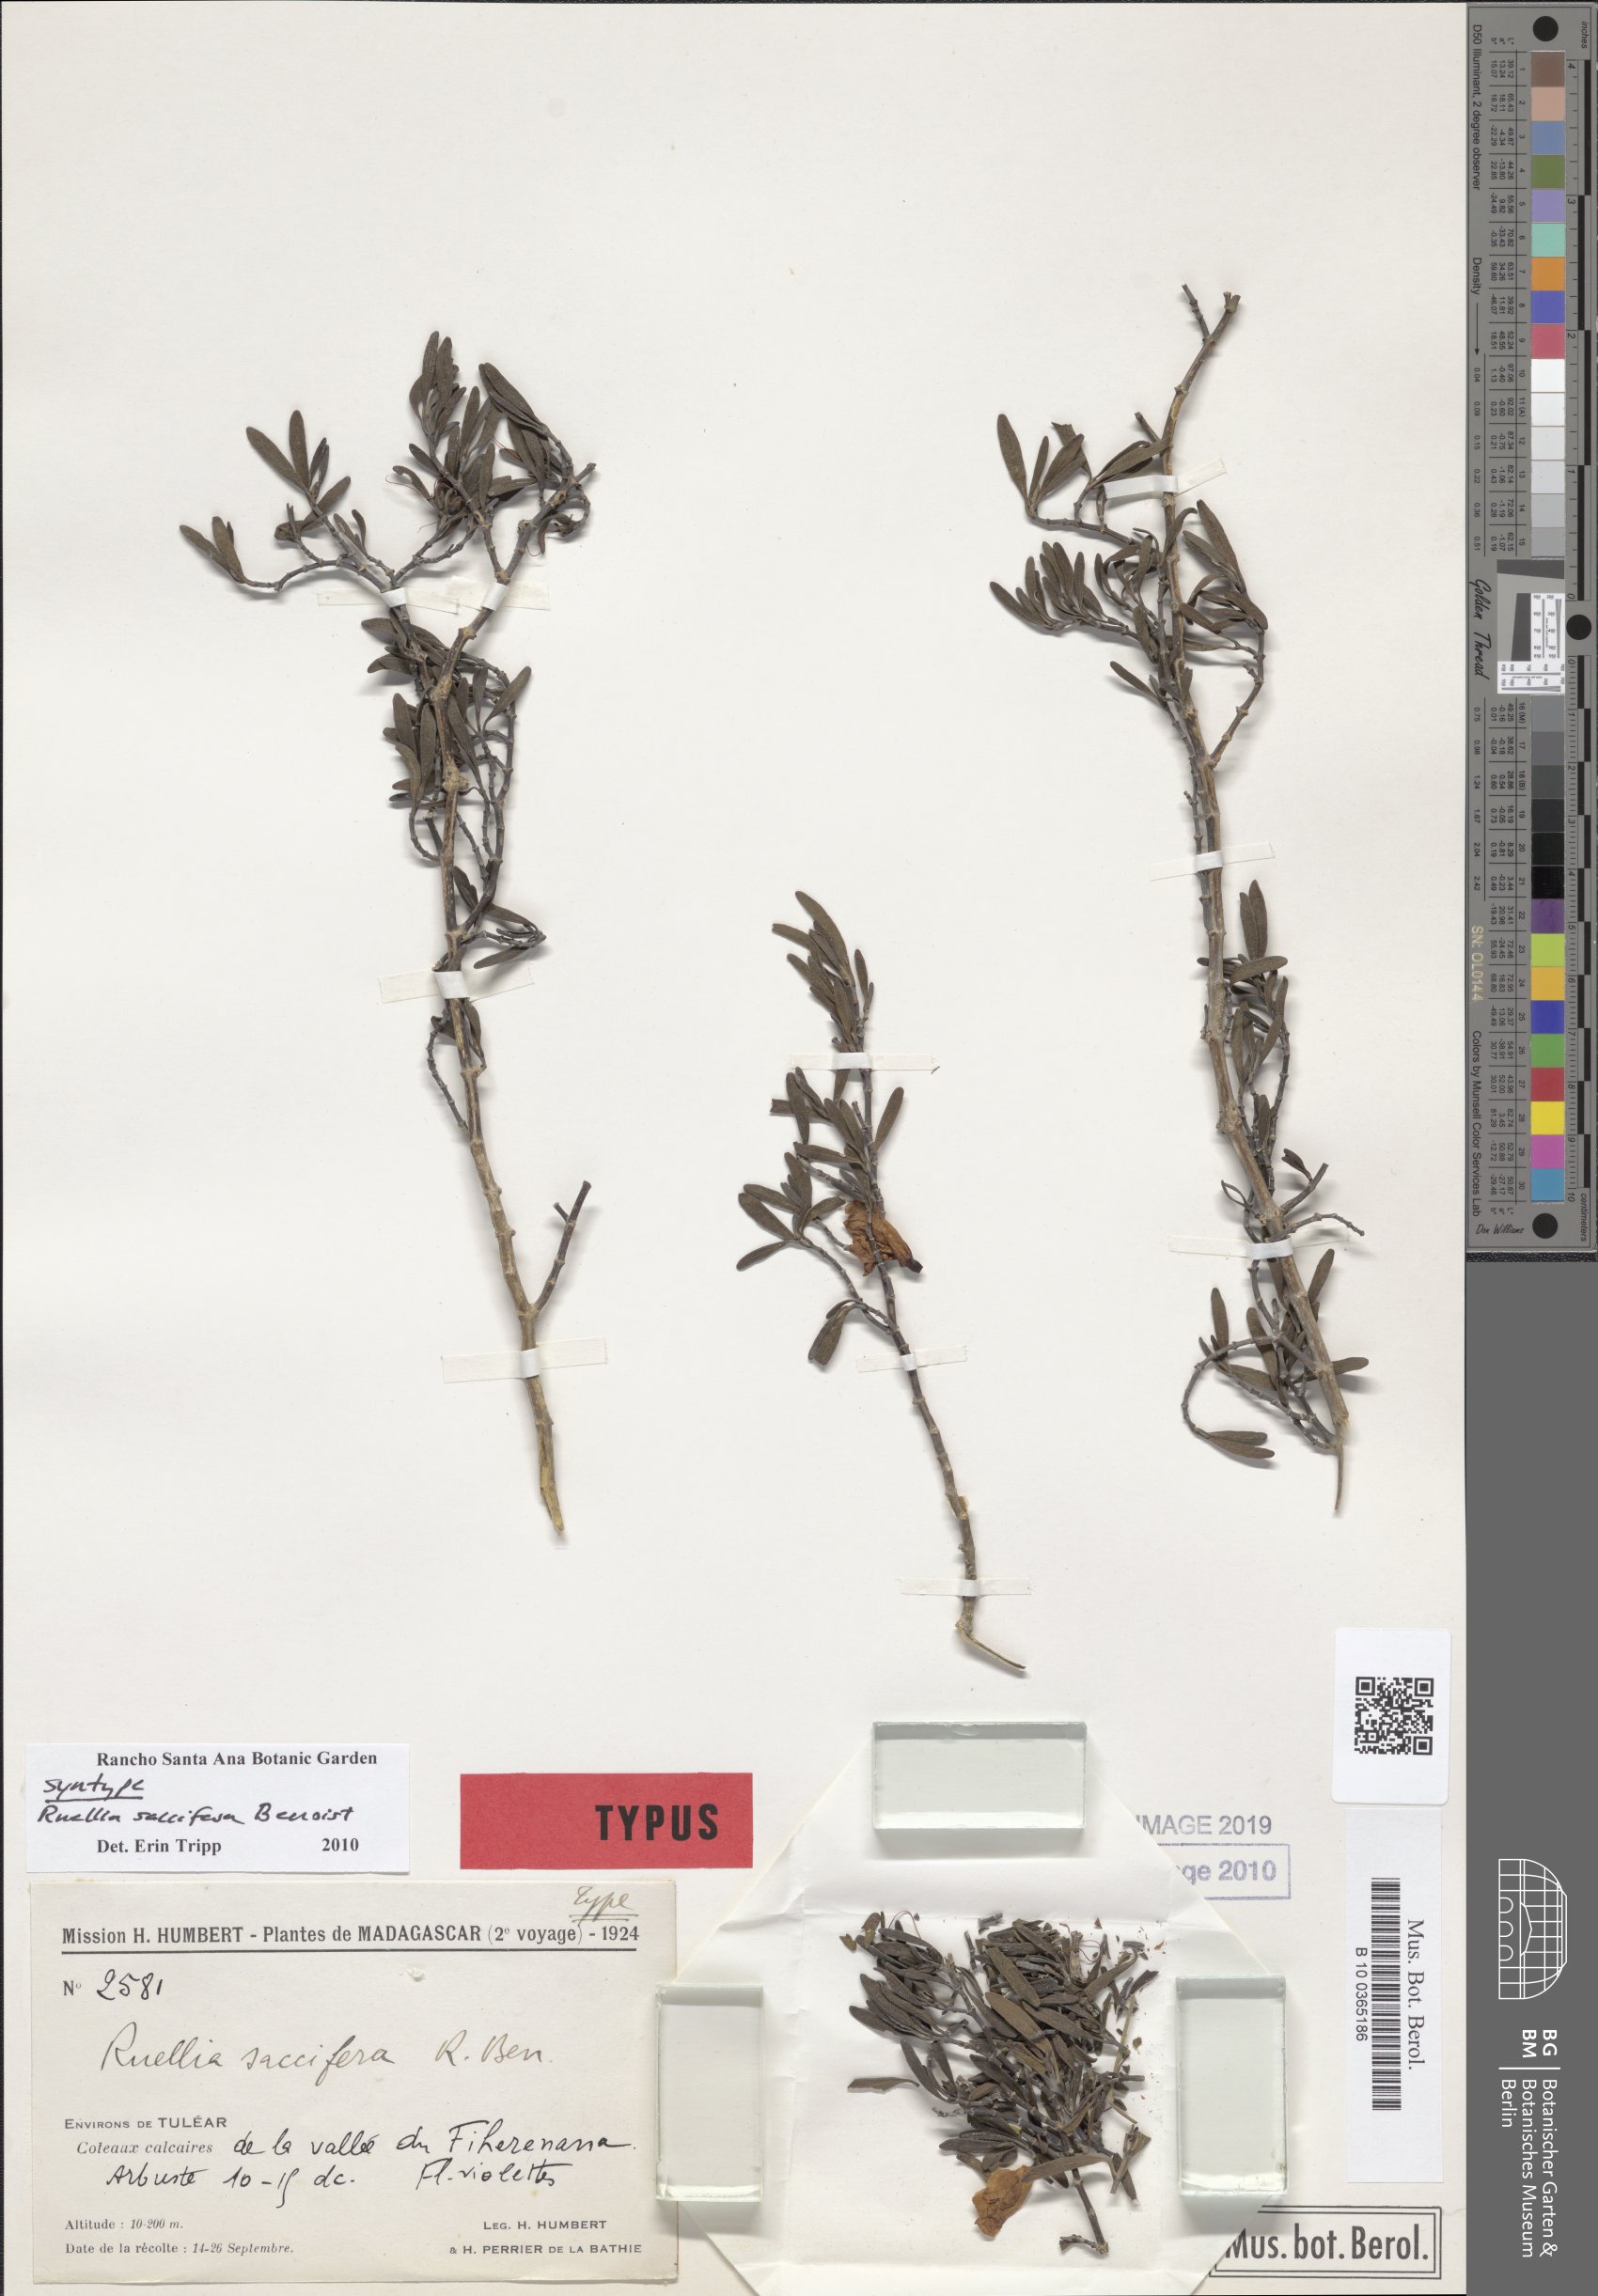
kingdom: Plantae
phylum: Tracheophyta
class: Magnoliopsida
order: Lamiales
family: Acanthaceae
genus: Ruellia
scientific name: Ruellia saccifera
